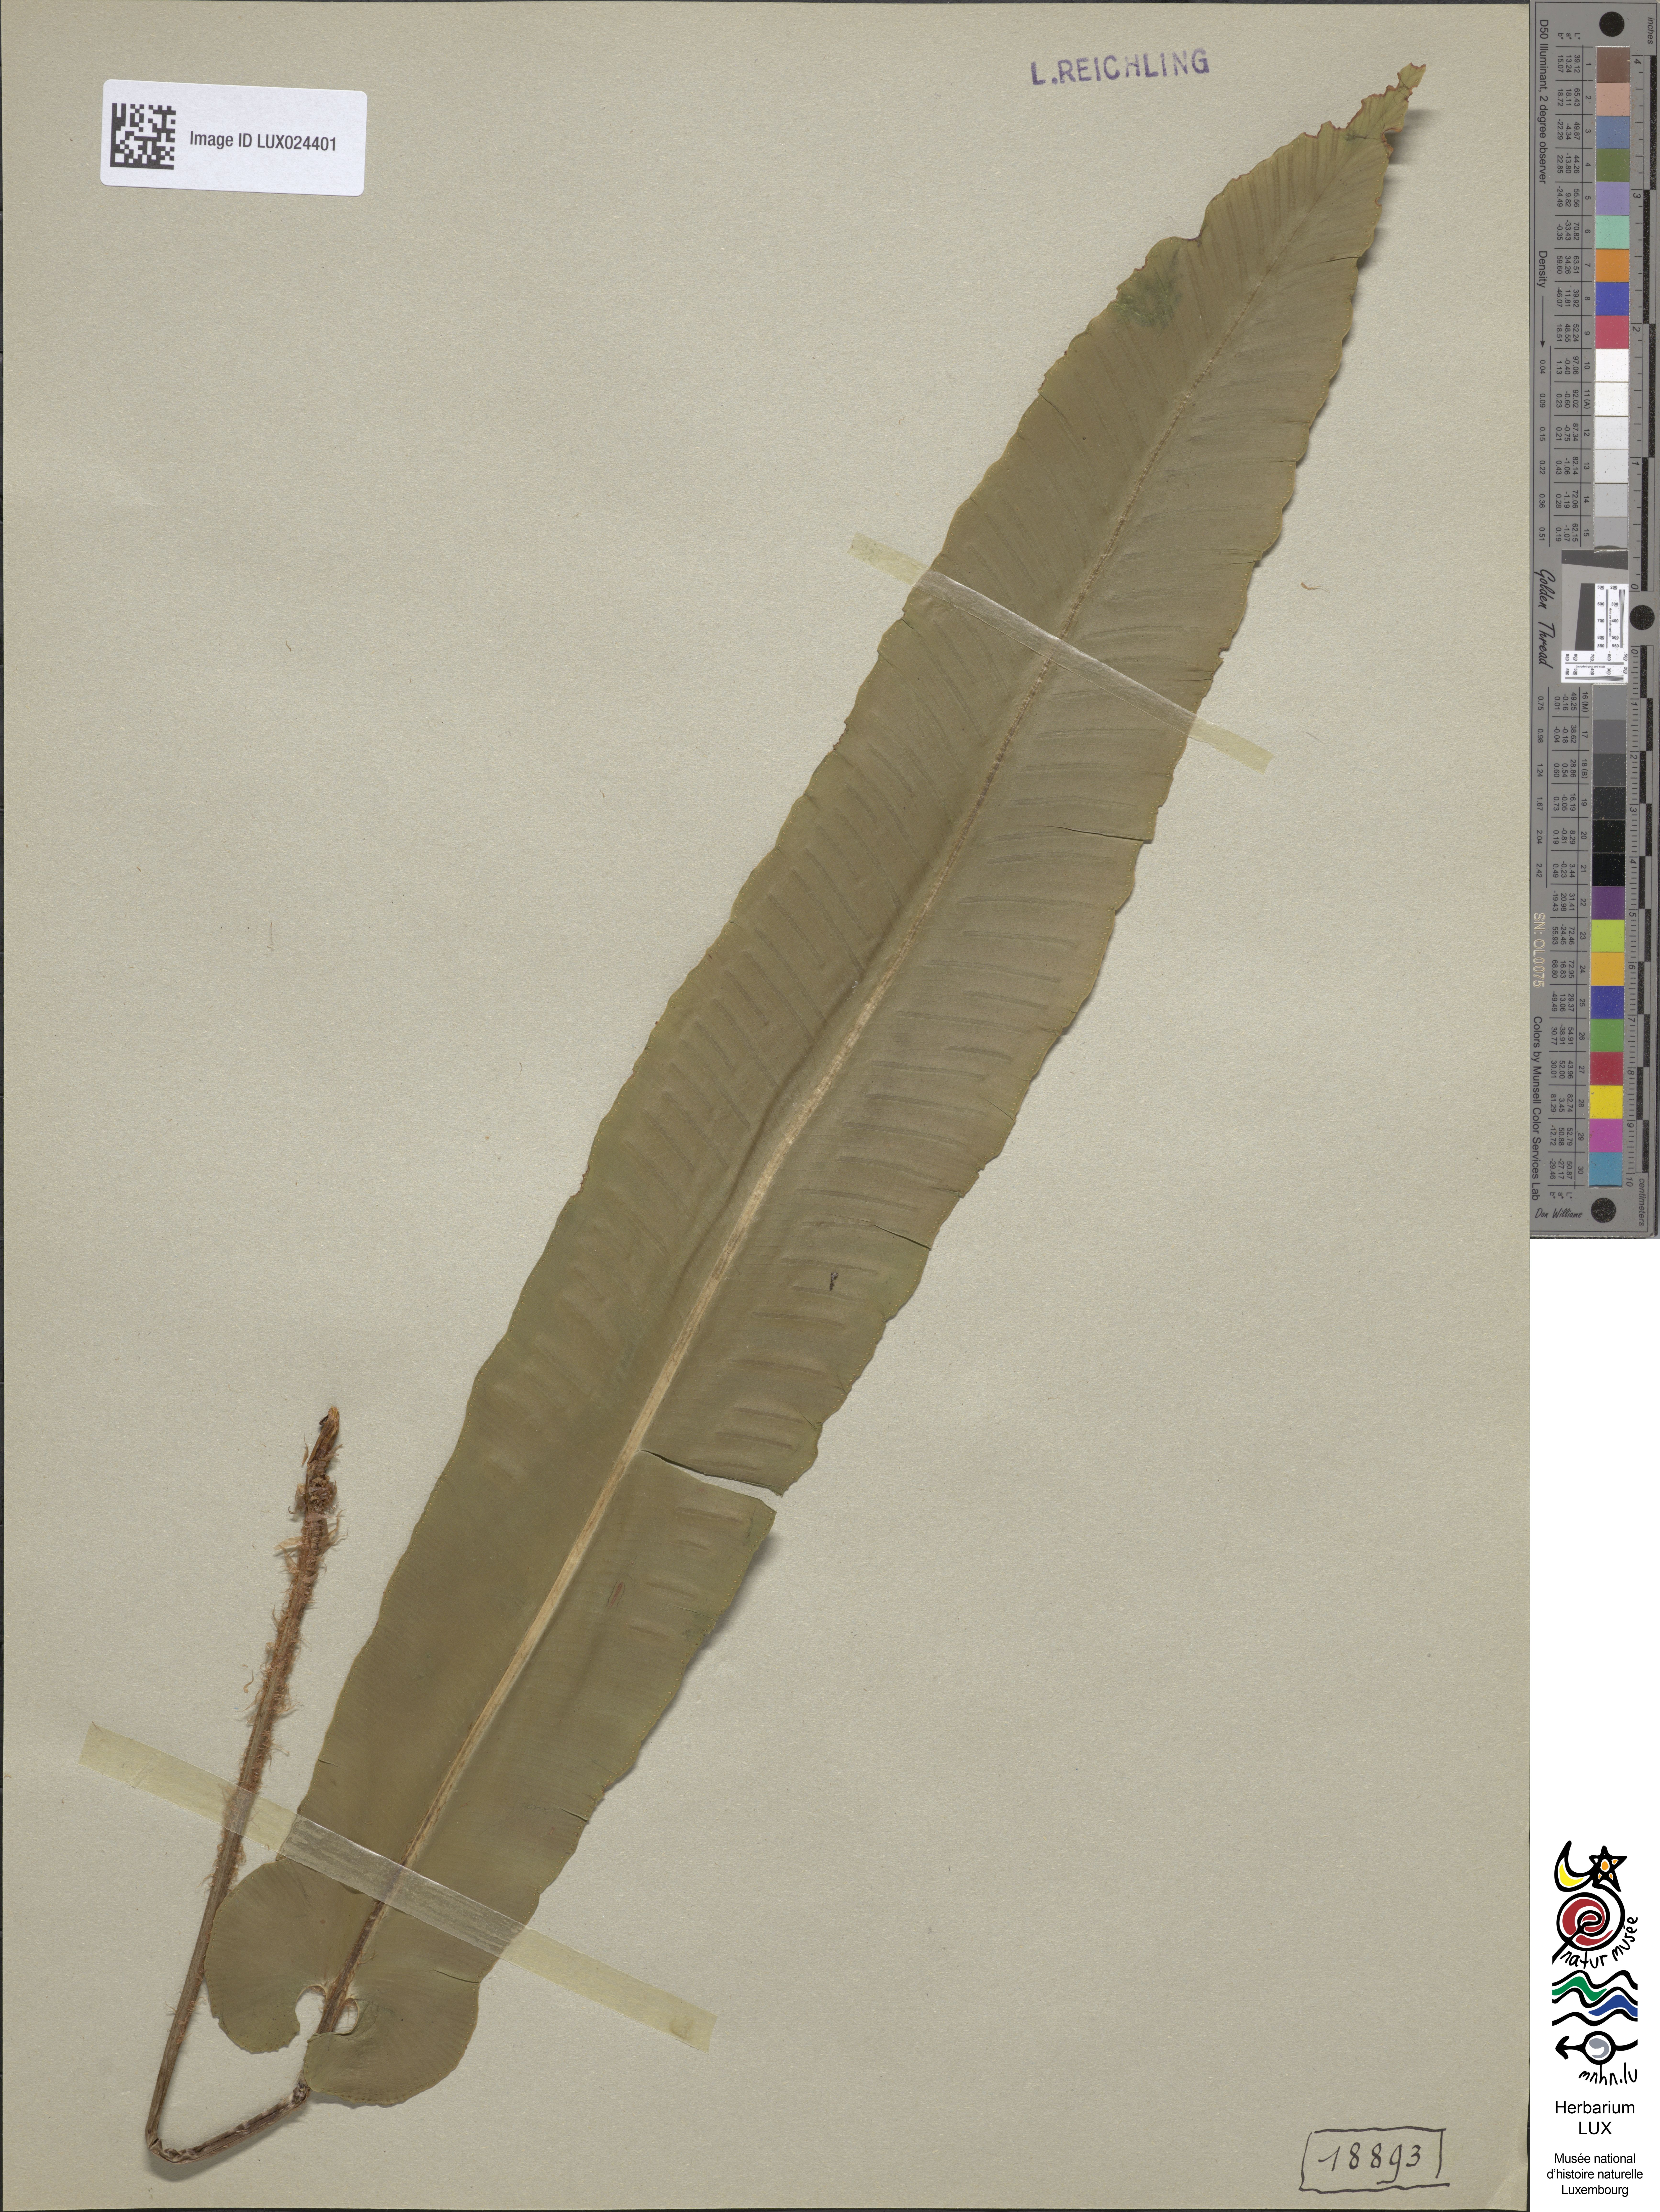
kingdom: Plantae
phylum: Tracheophyta
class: Polypodiopsida
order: Polypodiales
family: Aspleniaceae
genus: Asplenium
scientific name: Asplenium scolopendrium
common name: Hart's-tongue fern
